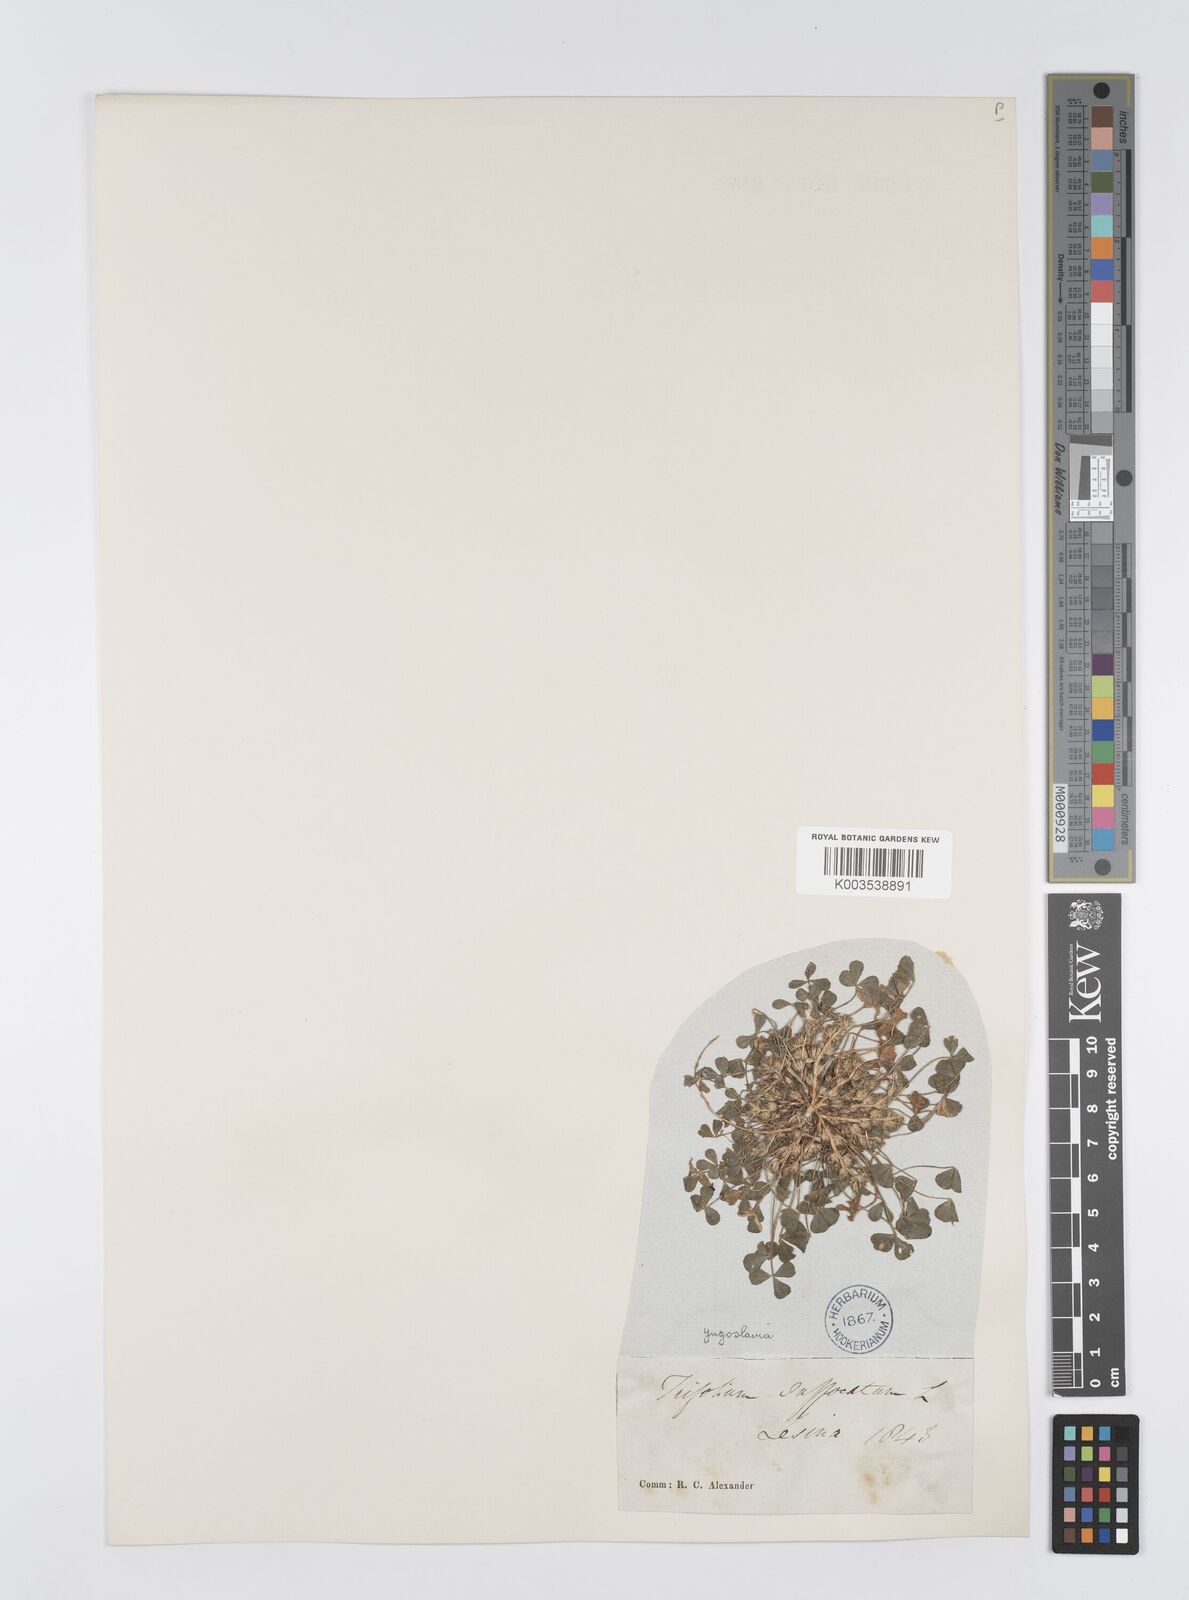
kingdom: Plantae
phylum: Tracheophyta
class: Magnoliopsida
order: Fabales
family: Fabaceae
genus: Trifolium
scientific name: Trifolium suffocatum
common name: Suffocated clover
